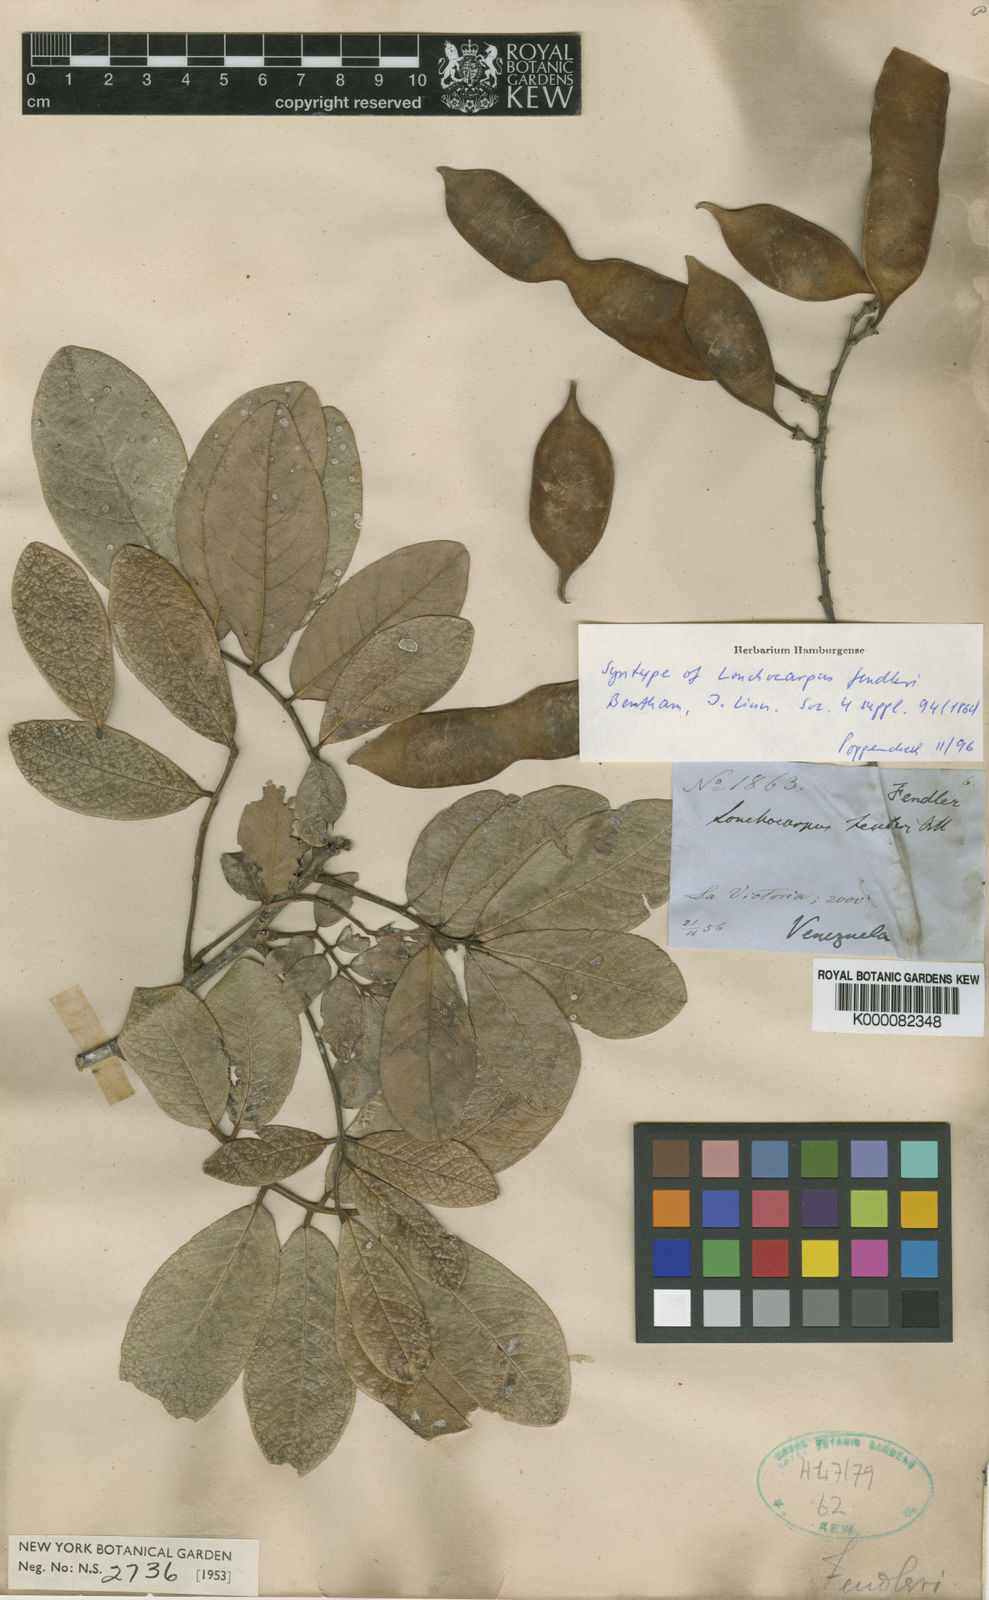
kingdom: Plantae
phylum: Tracheophyta
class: Magnoliopsida
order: Fabales
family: Fabaceae
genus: Muellera
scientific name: Muellera fendleri
